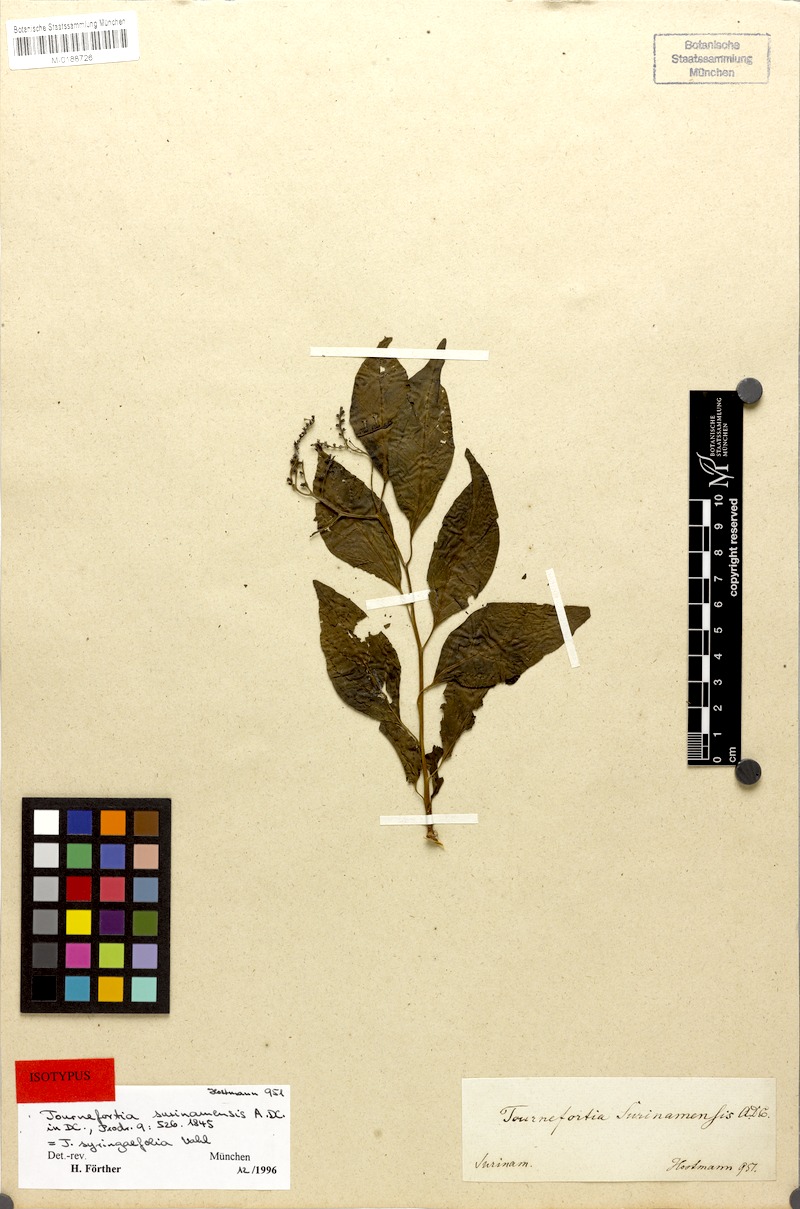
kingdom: Plantae
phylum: Tracheophyta
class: Magnoliopsida
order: Boraginales
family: Heliotropiaceae
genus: Myriopus
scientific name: Myriopus maculatus
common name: Laurel-leaf soldierbush
